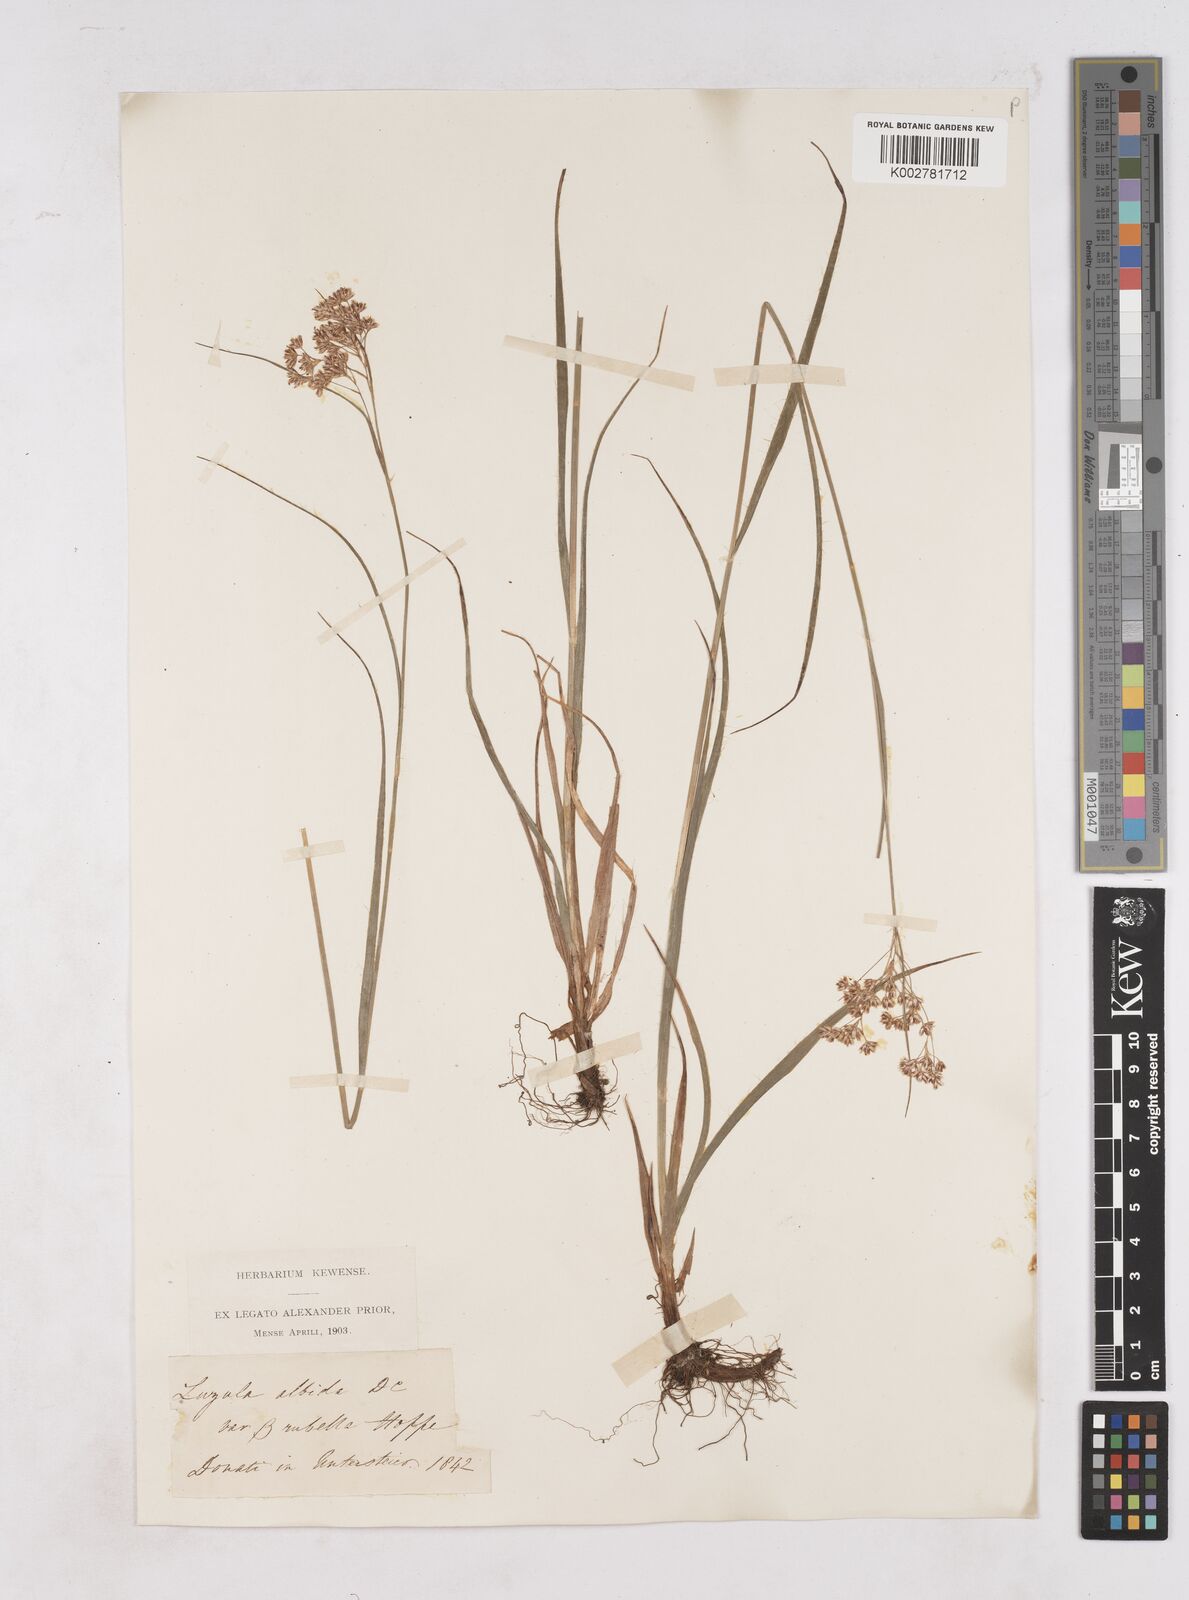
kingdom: Plantae
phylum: Tracheophyta
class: Liliopsida
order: Poales
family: Juncaceae
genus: Luzula
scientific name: Luzula luzuloides
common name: White wood-rush
